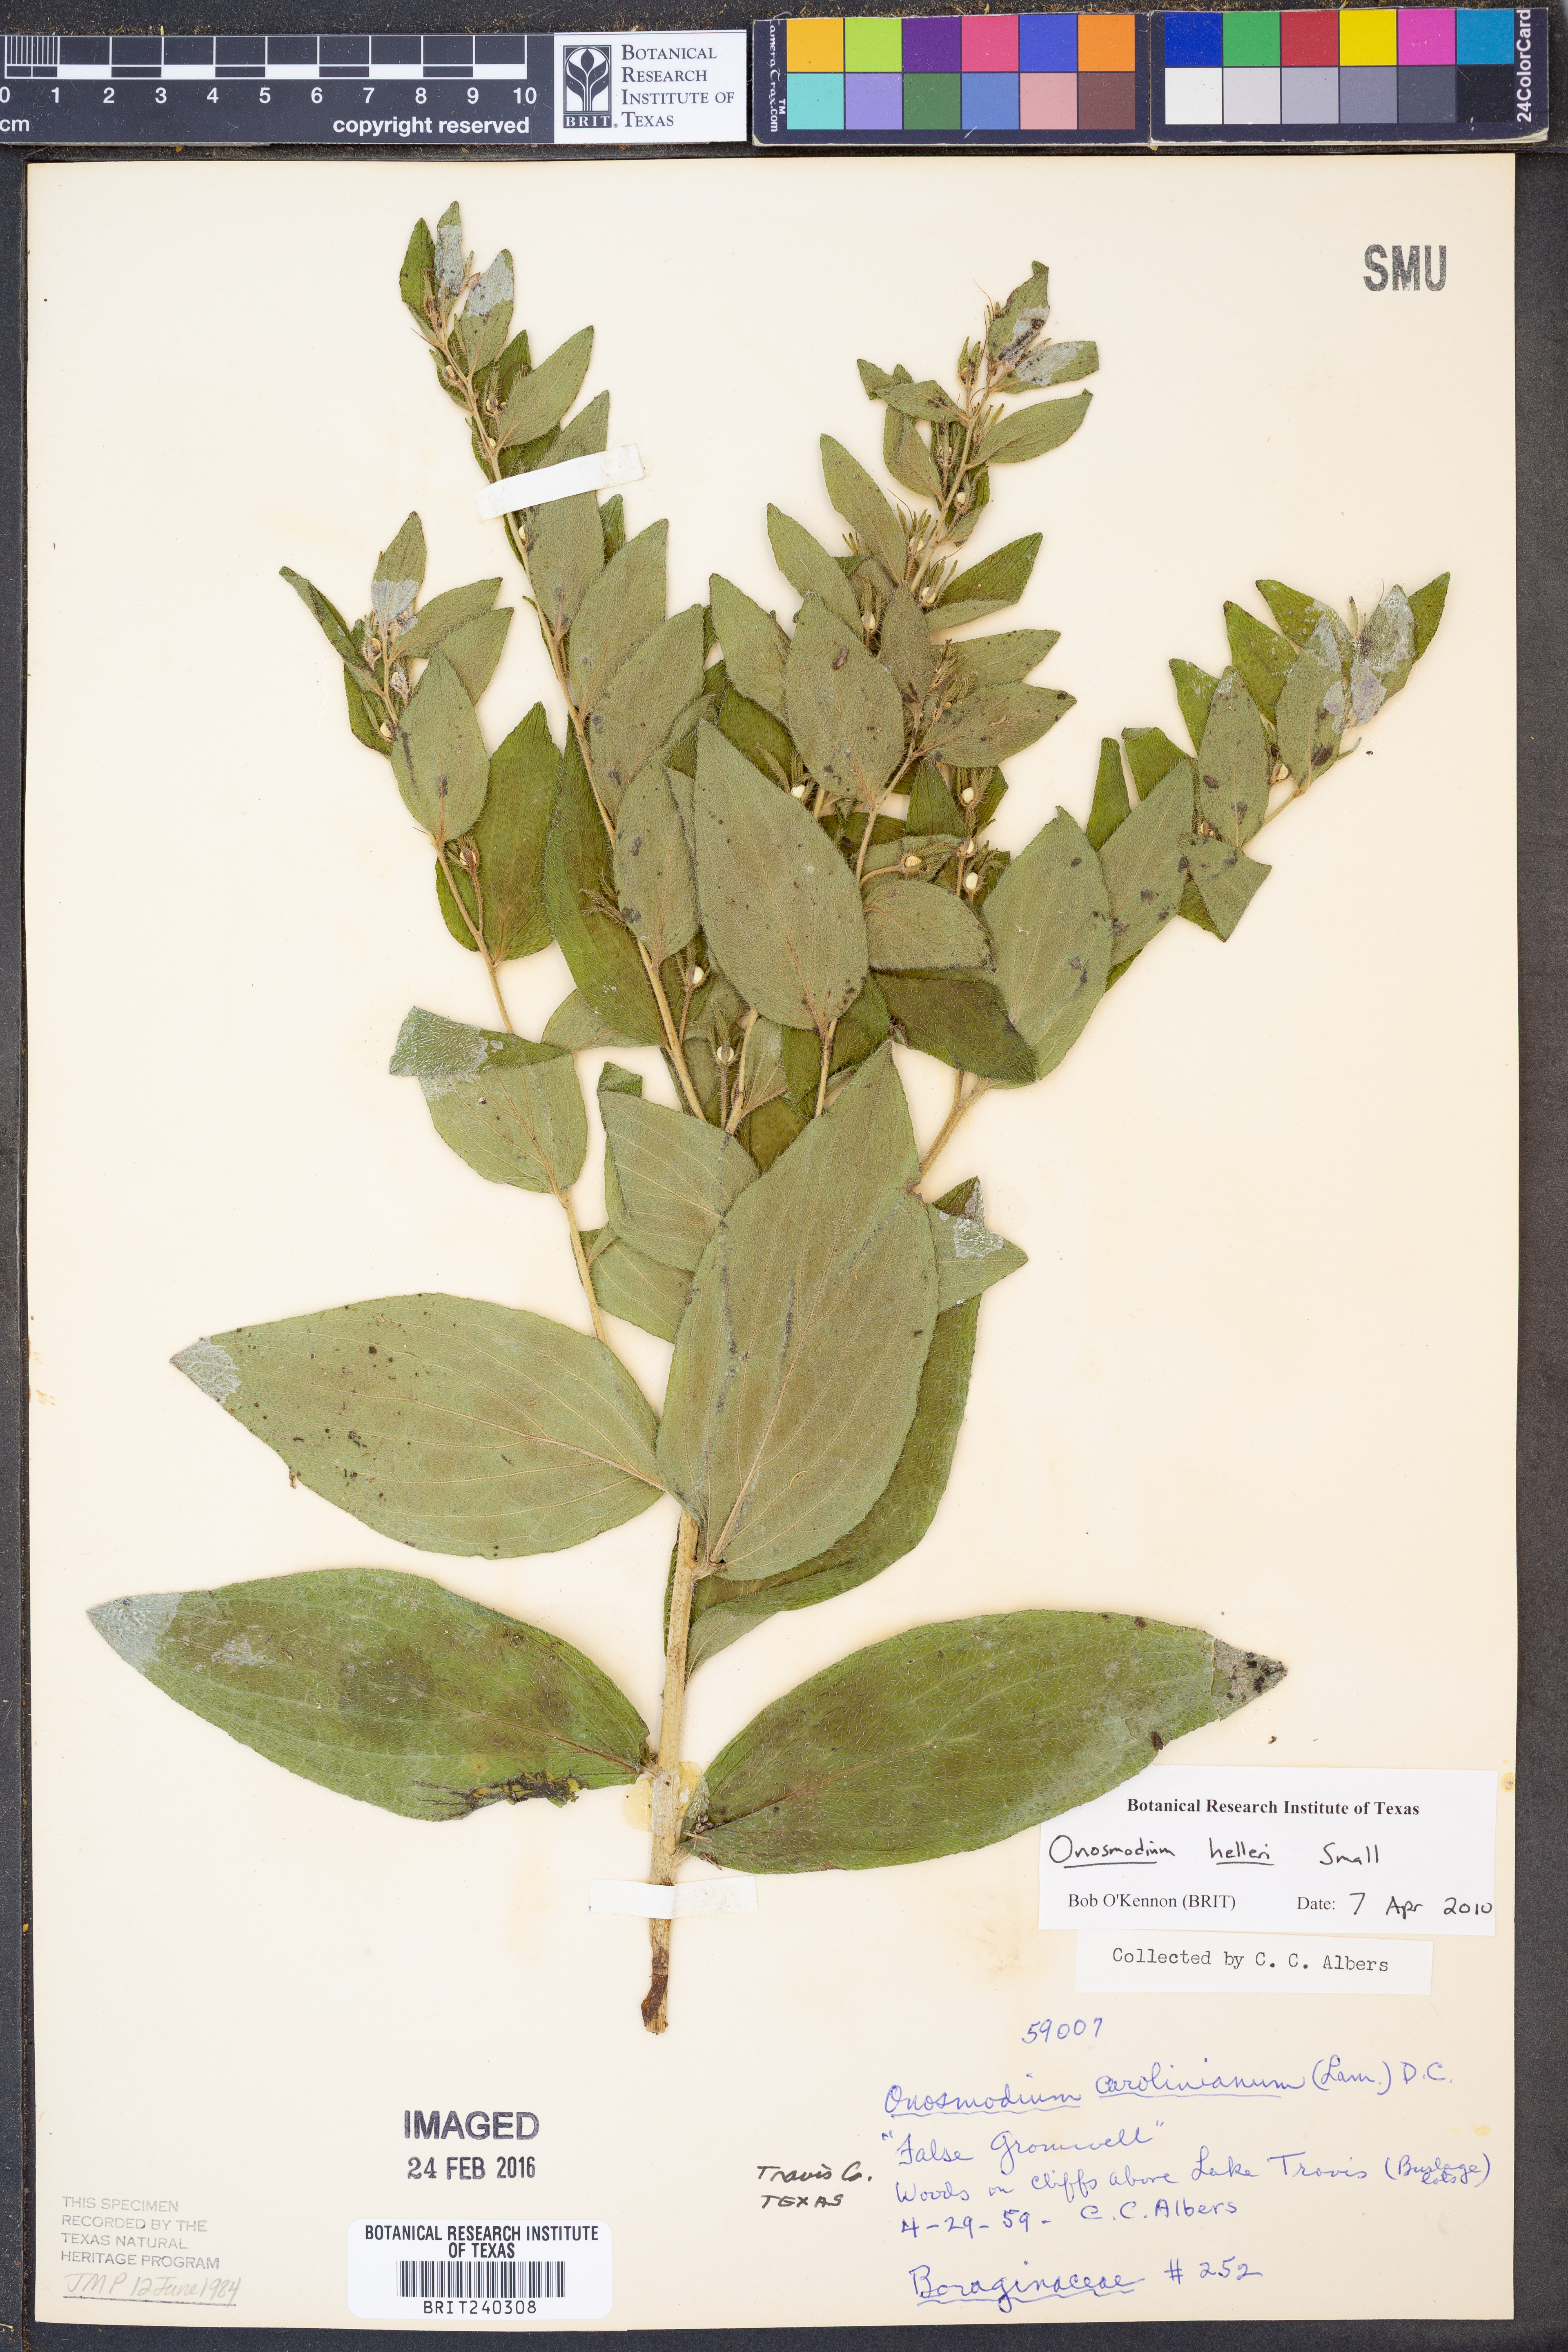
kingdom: Plantae
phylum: Tracheophyta
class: Magnoliopsida
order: Boraginales
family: Boraginaceae
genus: Lithospermum
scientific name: Lithospermum helleri
